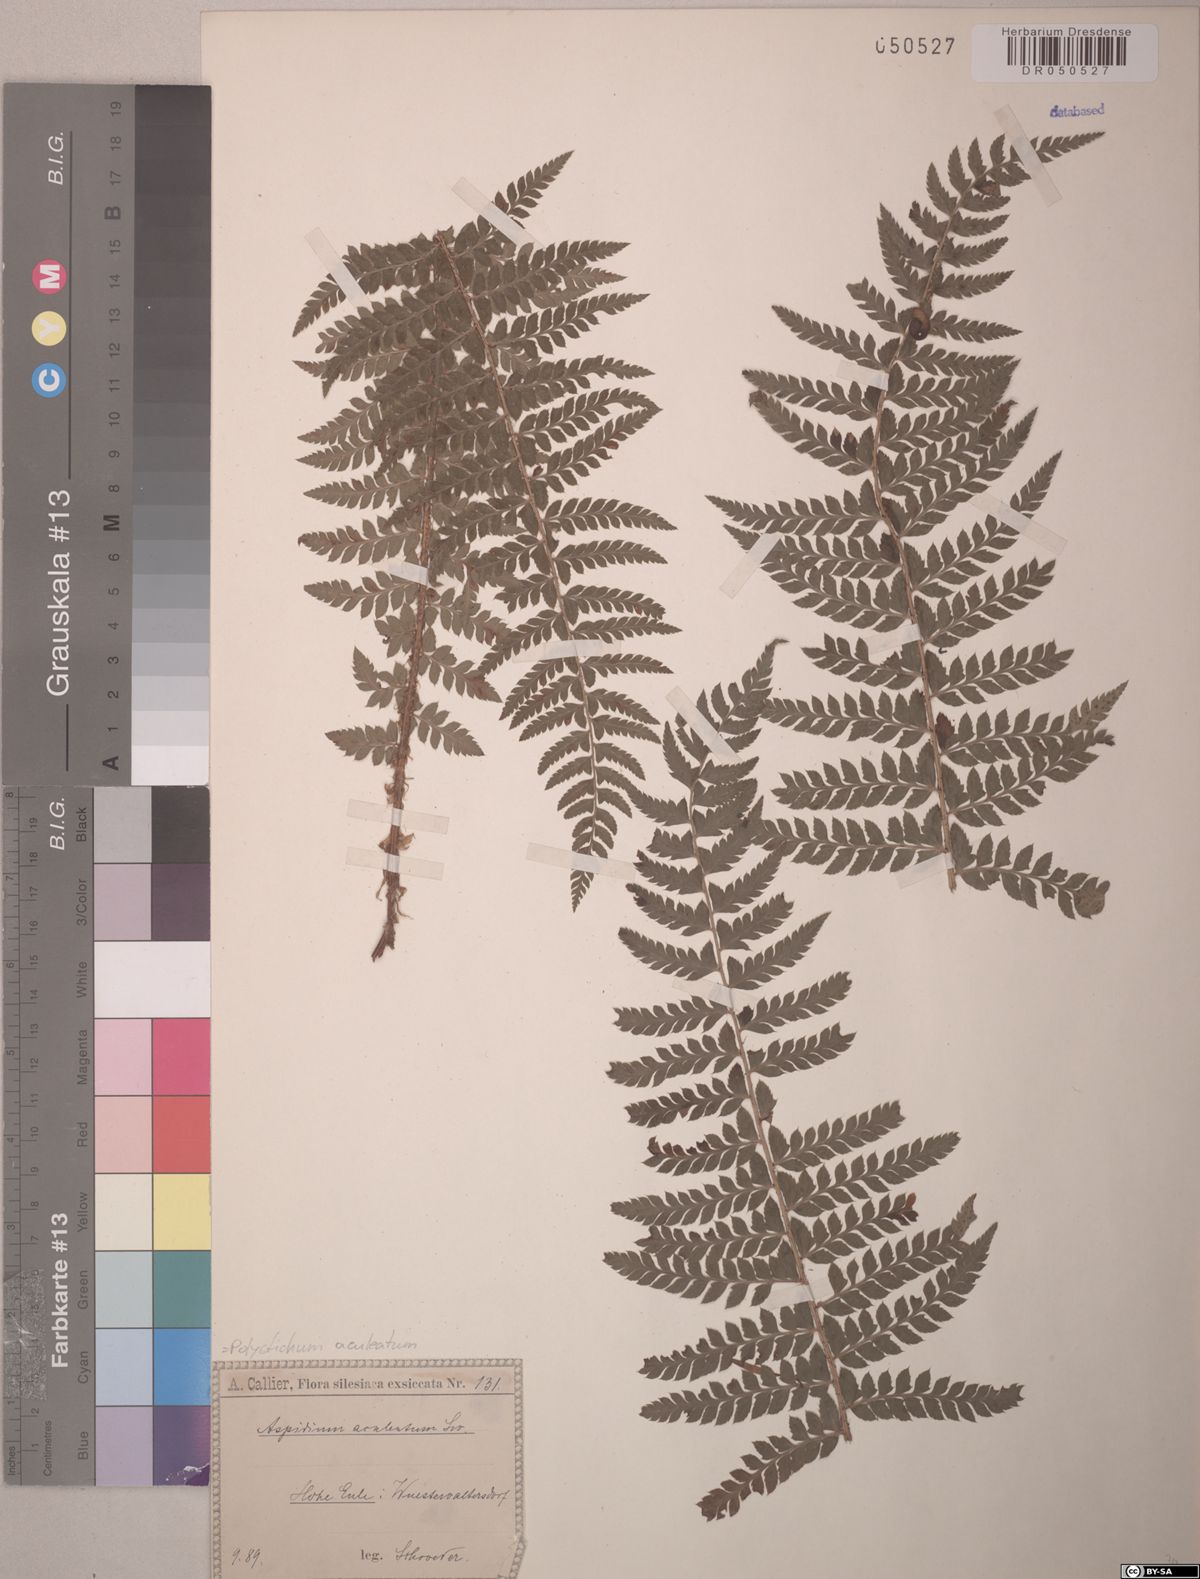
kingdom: Plantae
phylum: Tracheophyta
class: Polypodiopsida
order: Polypodiales
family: Dryopteridaceae
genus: Polystichum
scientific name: Polystichum aculeatum
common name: Hard shield-fern
